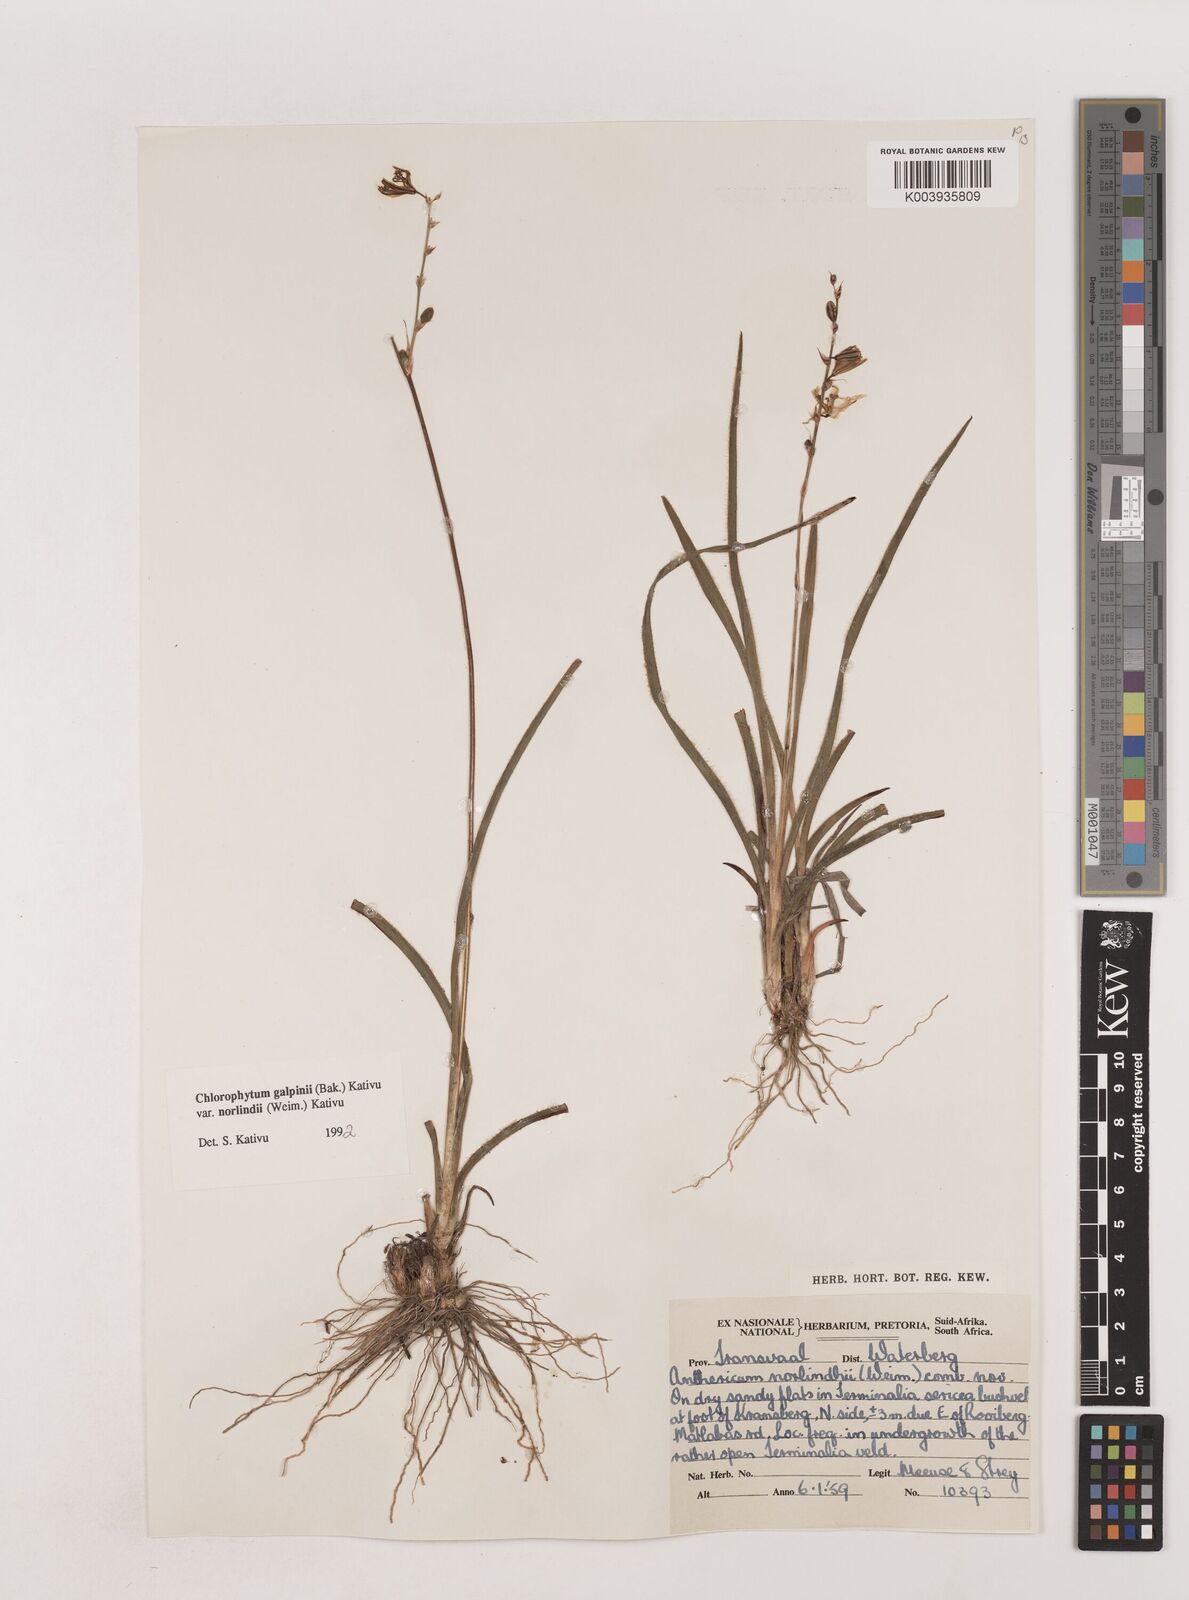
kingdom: Plantae
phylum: Tracheophyta
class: Liliopsida
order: Asparagales
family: Asparagaceae
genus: Chlorophytum
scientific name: Chlorophytum galpinii
